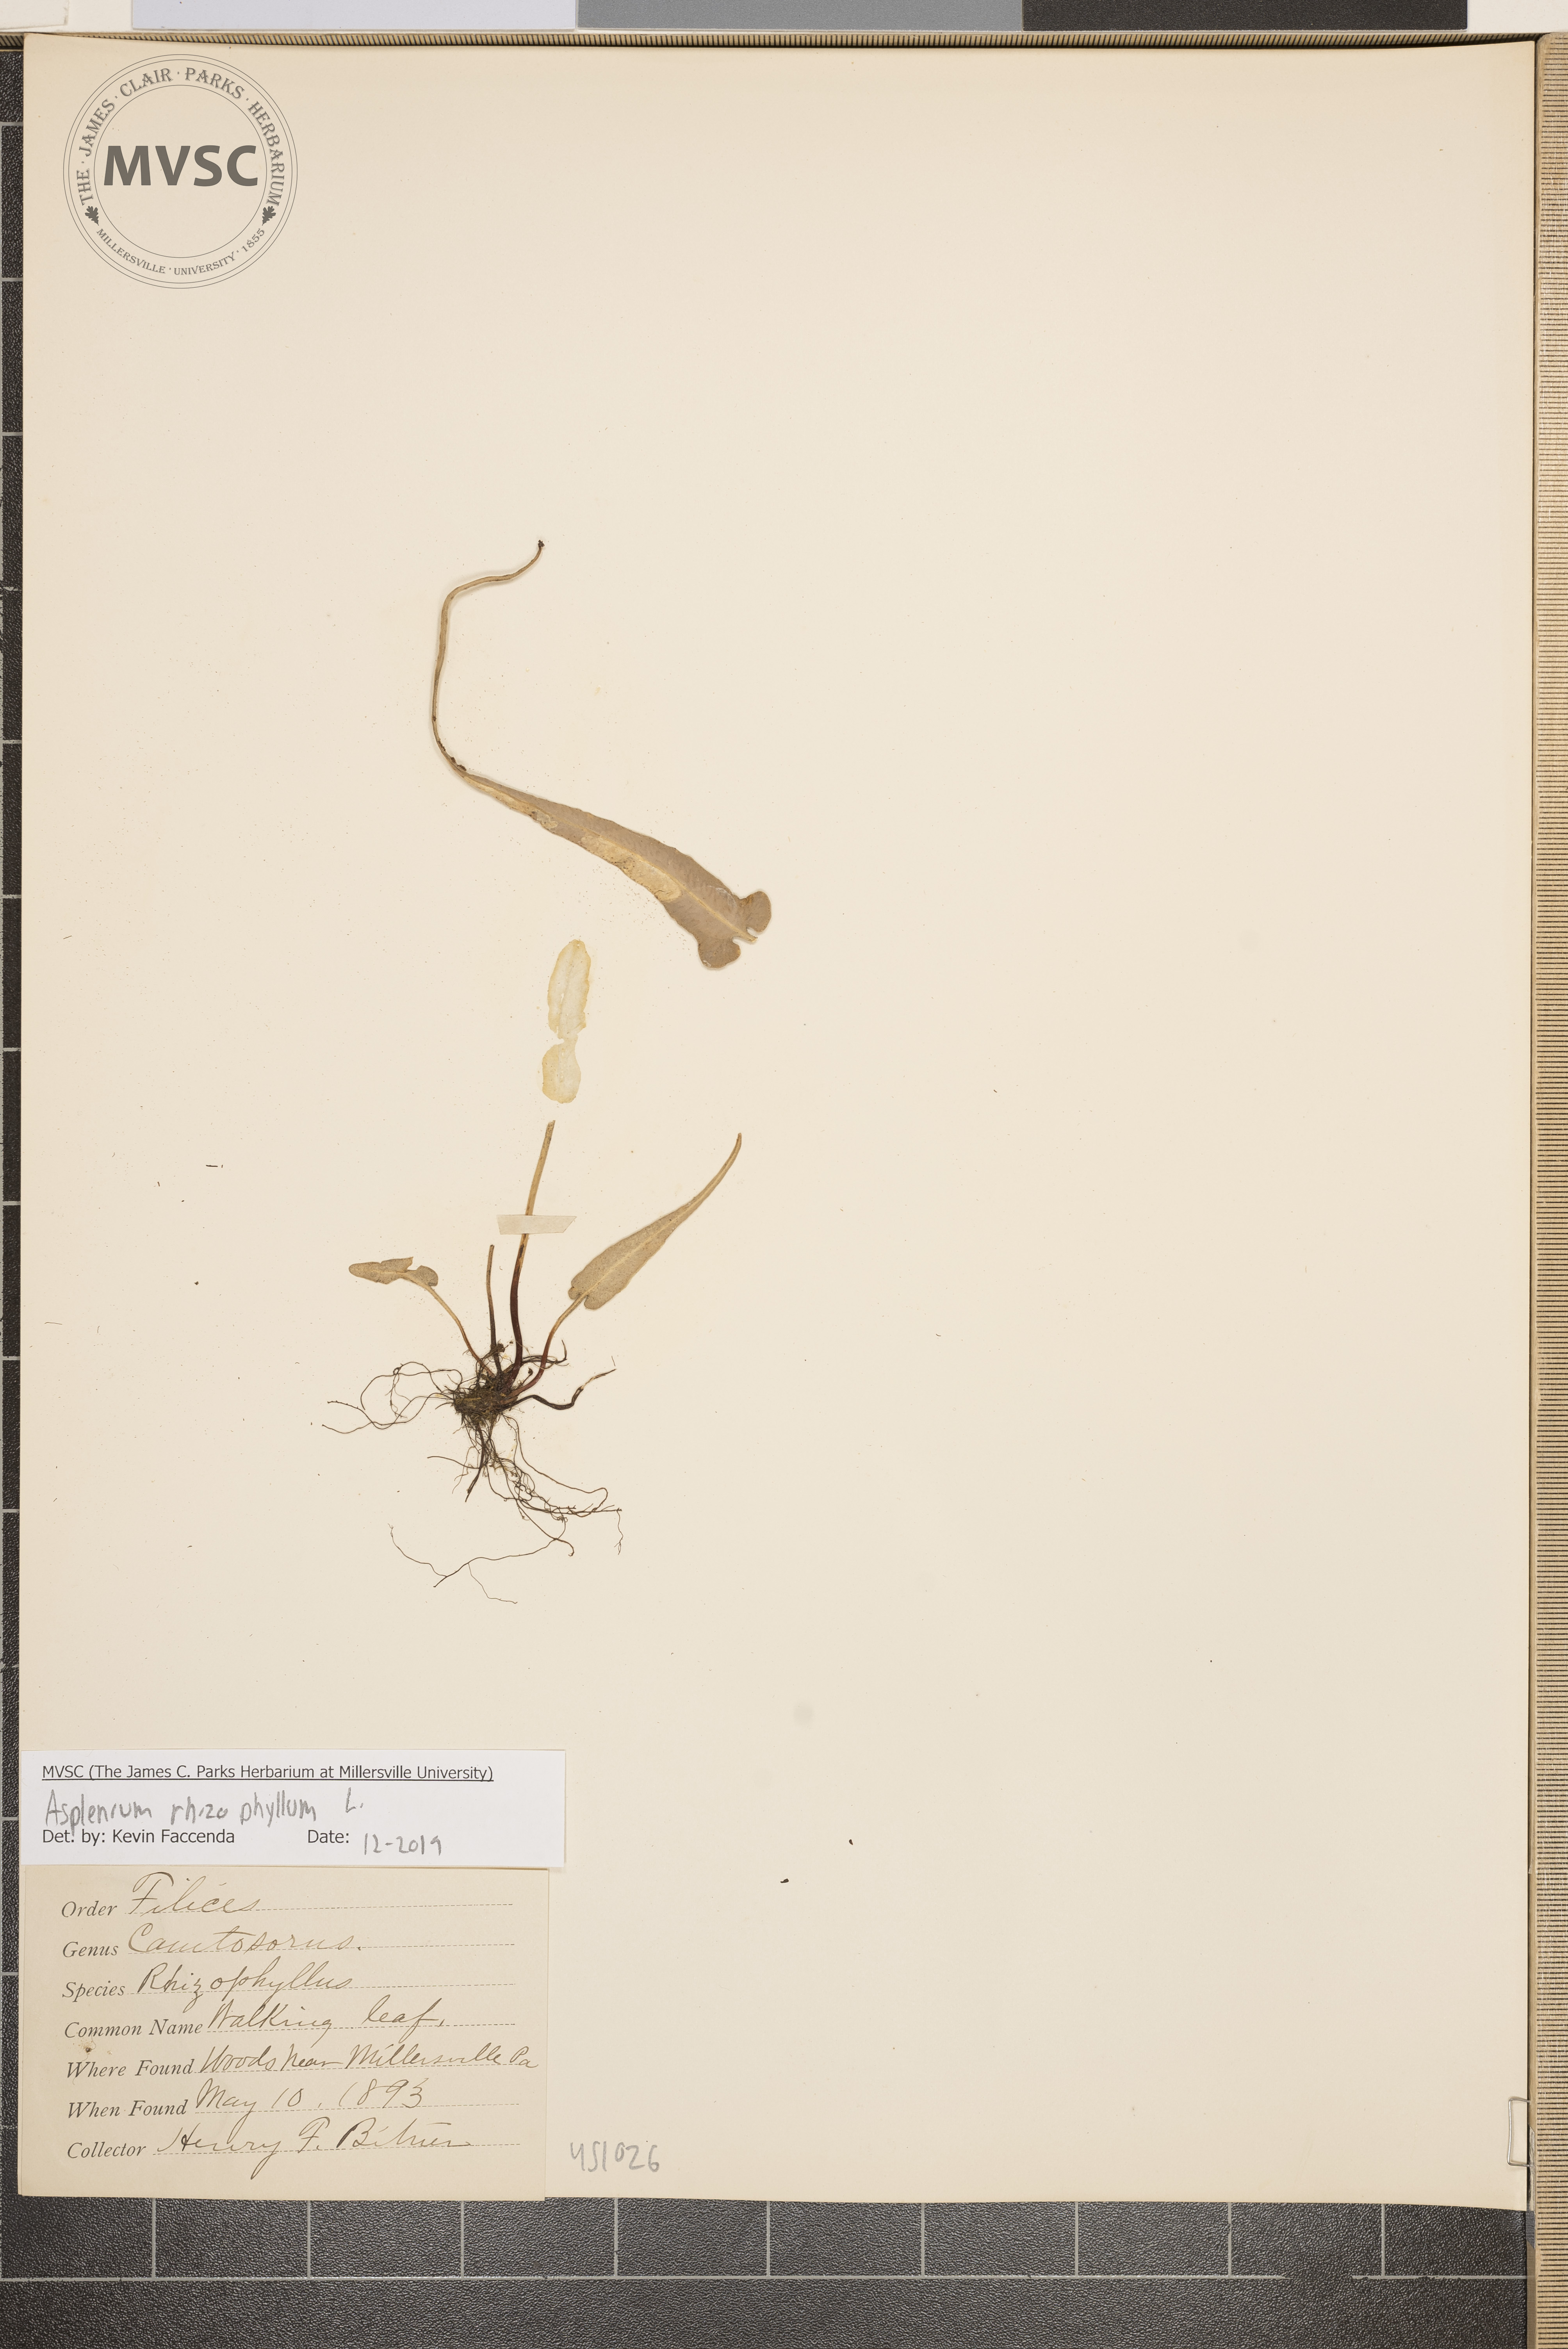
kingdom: Plantae
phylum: Tracheophyta
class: Polypodiopsida
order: Polypodiales
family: Aspleniaceae
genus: Asplenium
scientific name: Asplenium rhizophyllum
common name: Walking fern
